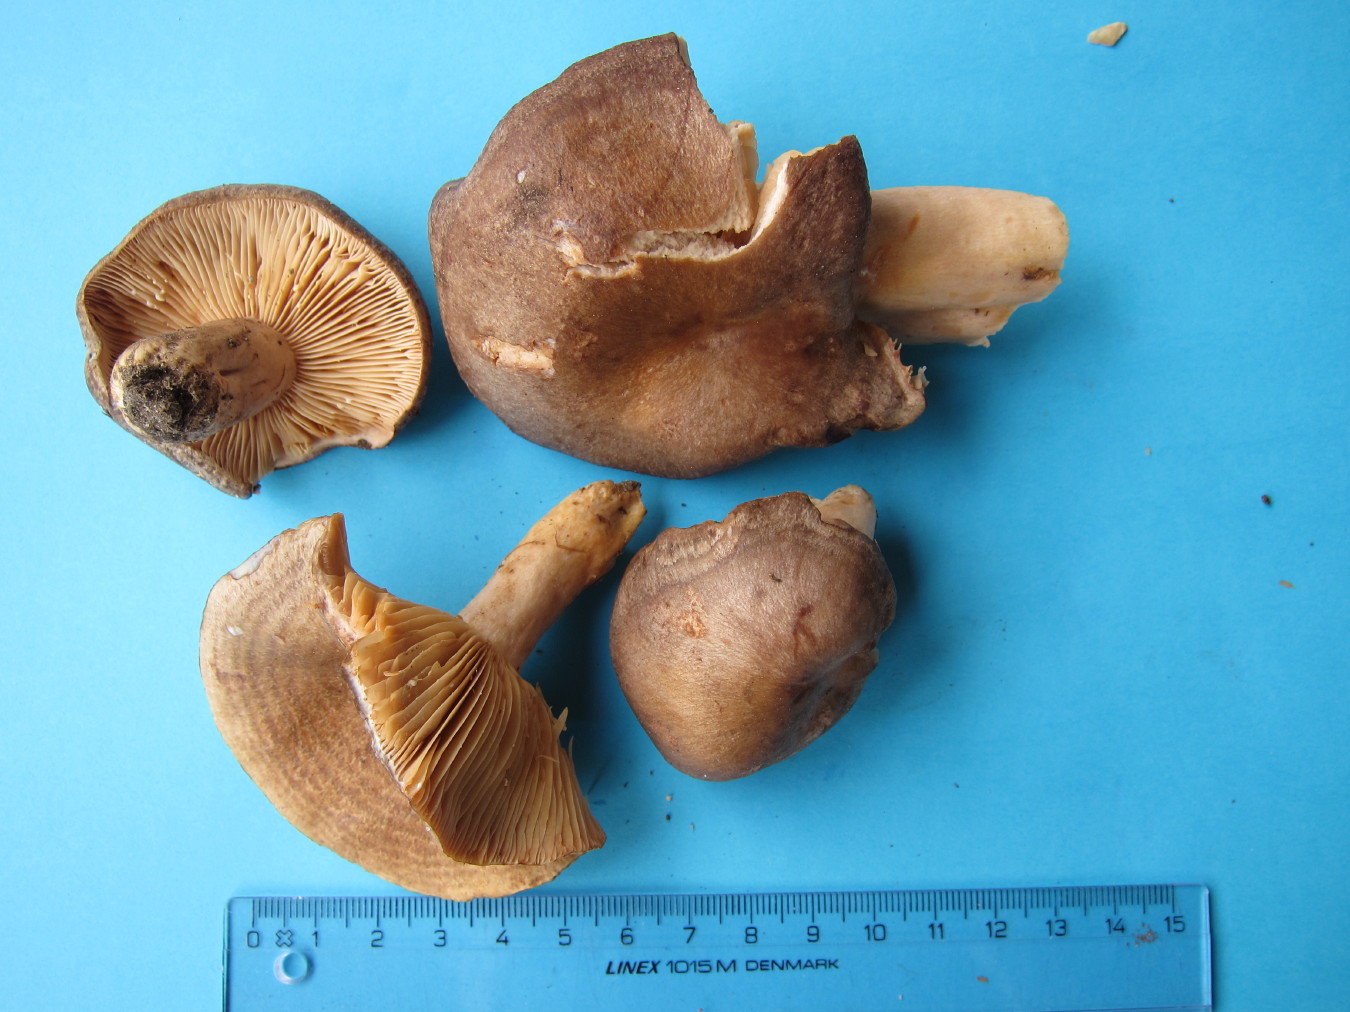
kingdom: Fungi
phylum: Basidiomycota
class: Agaricomycetes
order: Russulales
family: Russulaceae
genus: Lactarius
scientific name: Lactarius circellatus
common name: avnbøg-mælkehat
